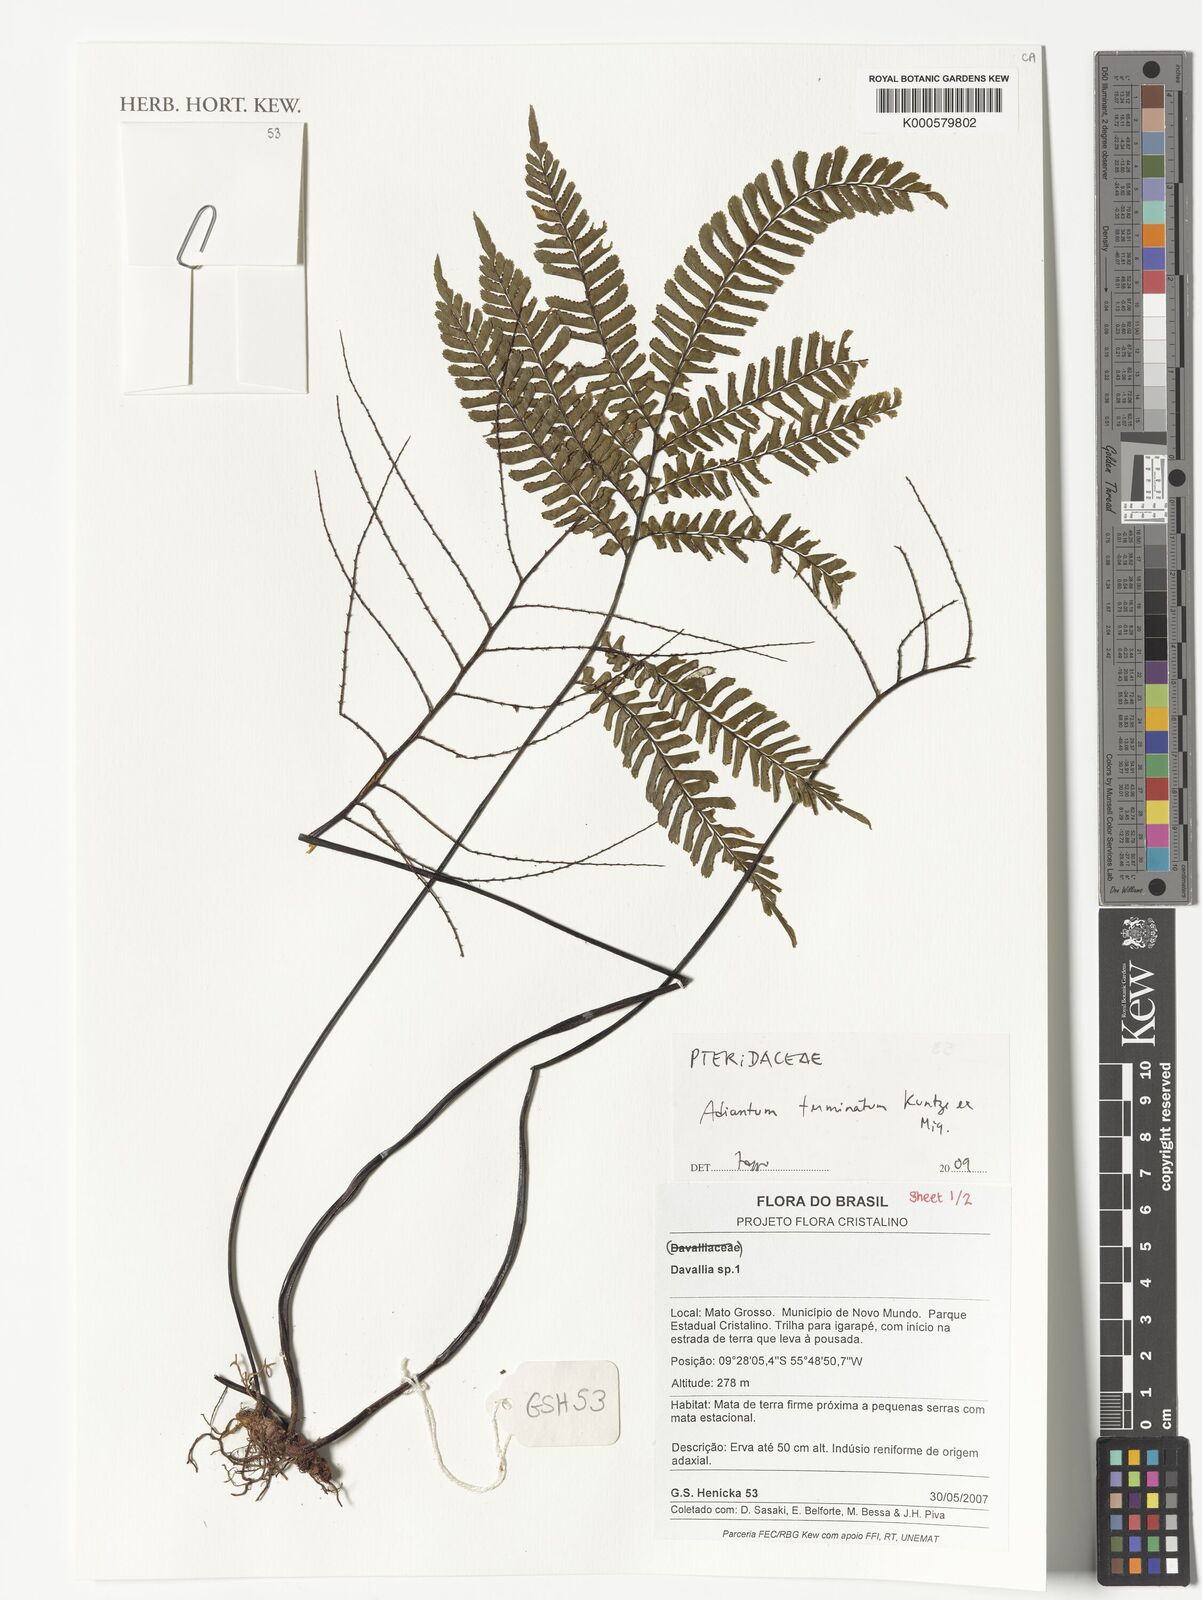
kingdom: Plantae
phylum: Tracheophyta
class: Polypodiopsida
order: Polypodiales
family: Pteridaceae
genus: Adiantum
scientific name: Adiantum
